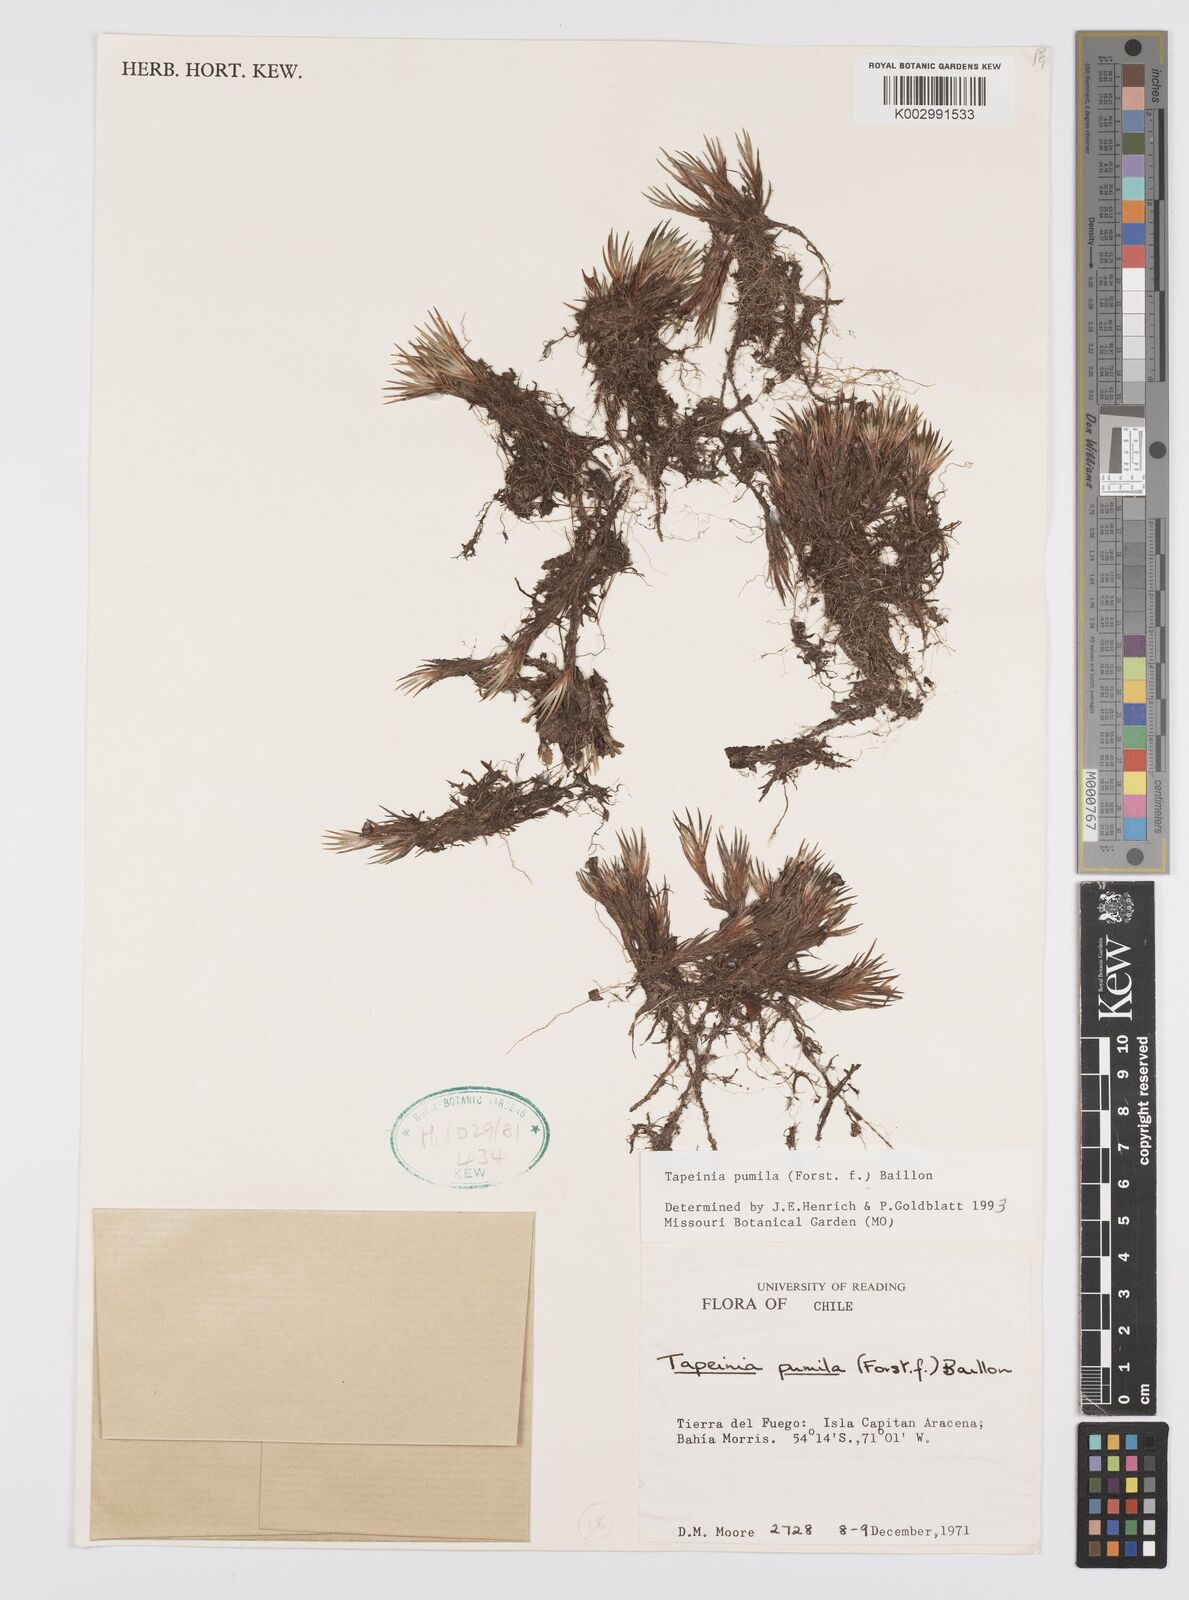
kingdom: Plantae
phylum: Tracheophyta
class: Liliopsida
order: Asparagales
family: Iridaceae
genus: Tapeinia
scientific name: Tapeinia pumila
